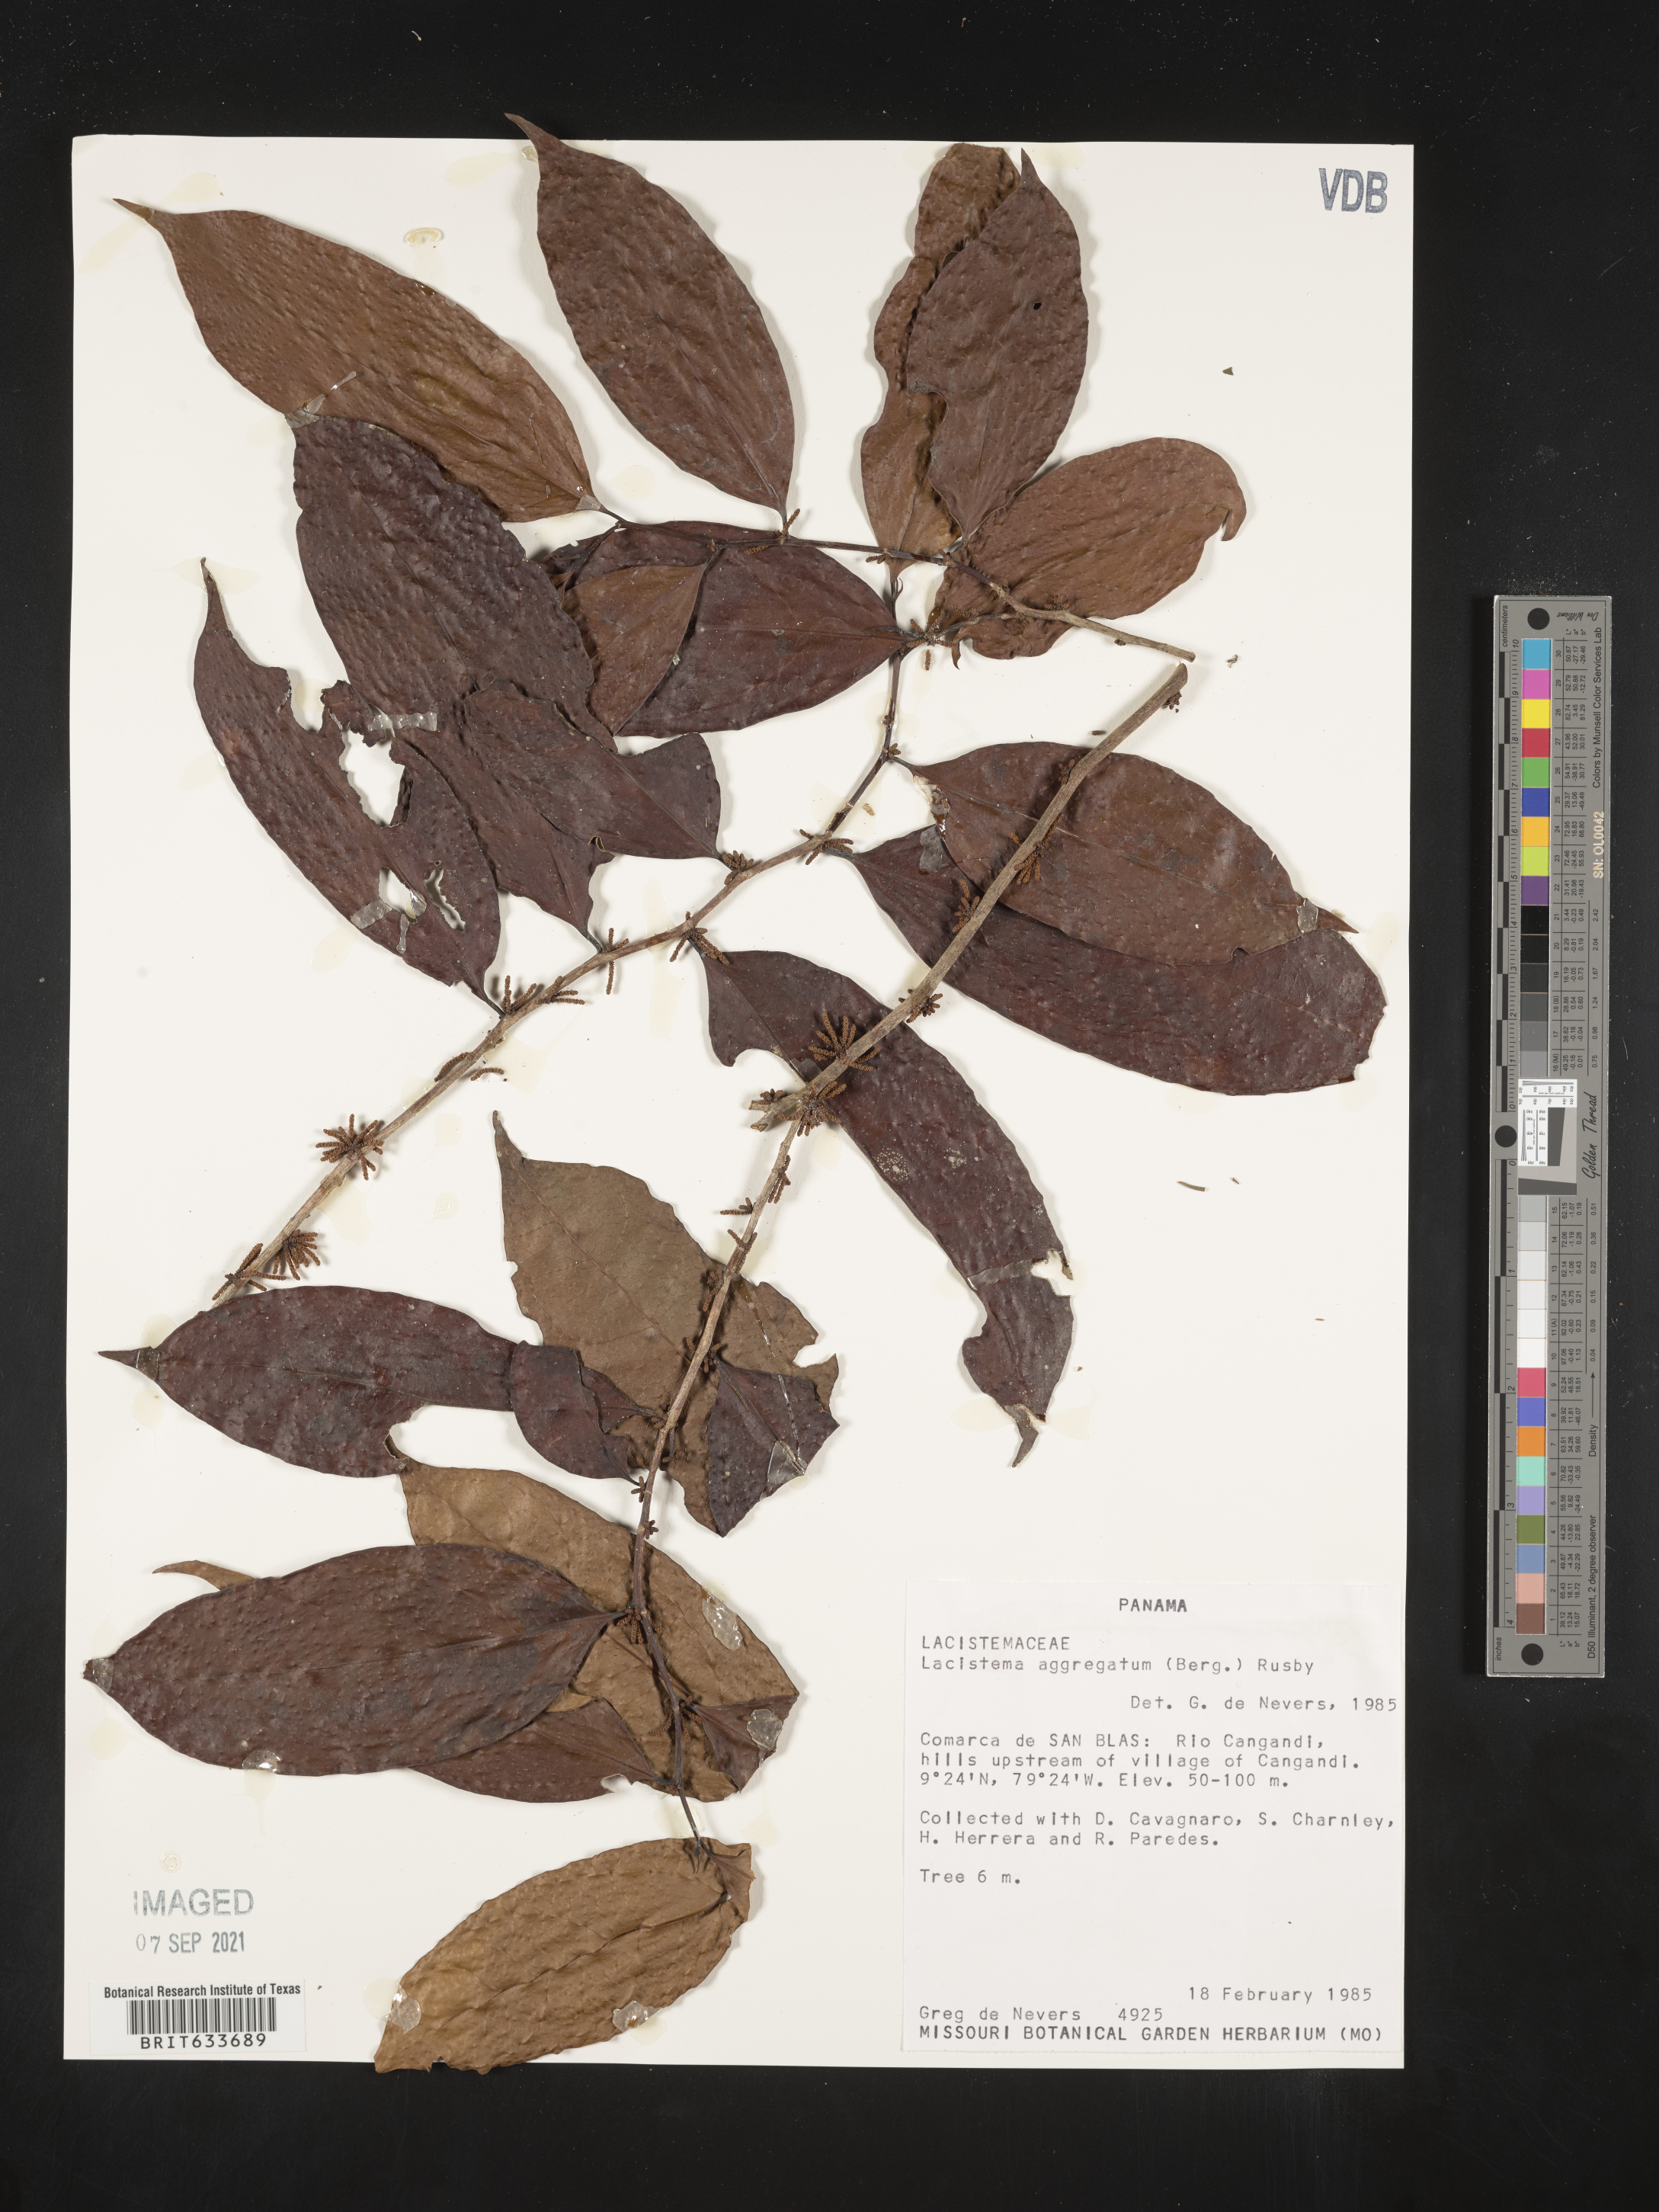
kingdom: Plantae
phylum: Tracheophyta
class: Magnoliopsida
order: Malpighiales
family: Lacistemataceae
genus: Lacistema
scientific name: Lacistema
